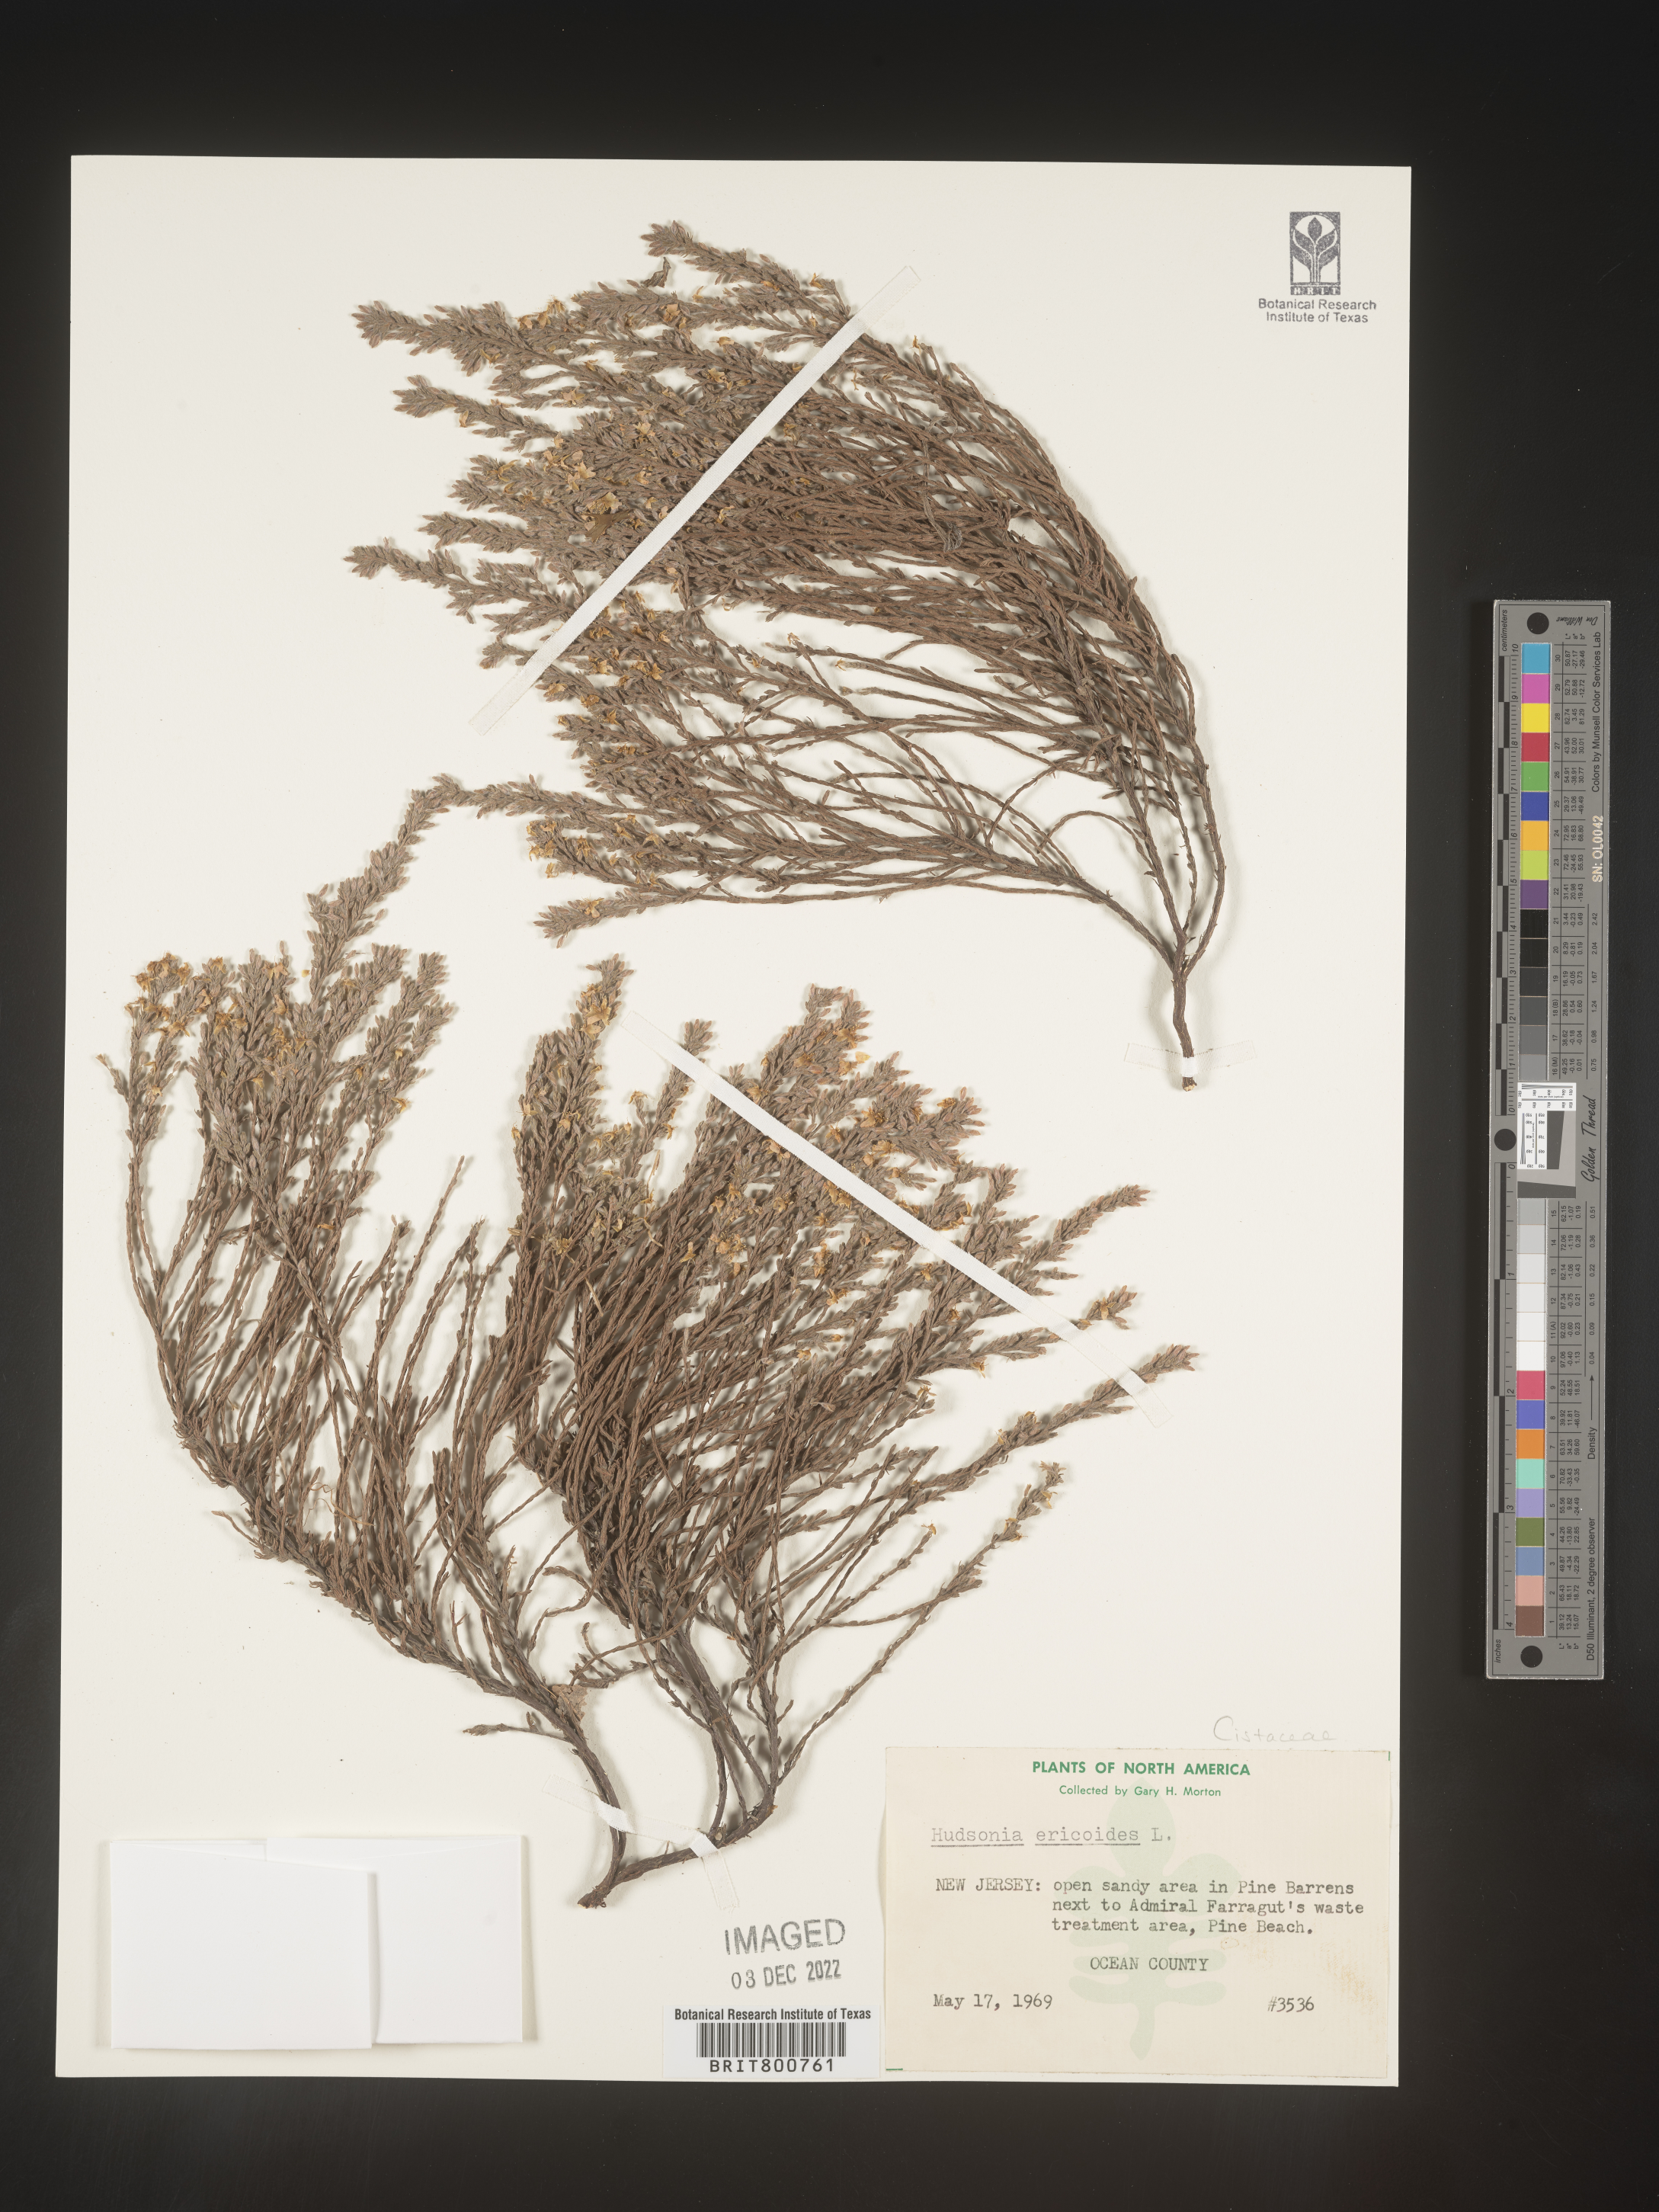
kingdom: Plantae
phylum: Tracheophyta
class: Magnoliopsida
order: Malvales
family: Cistaceae
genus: Hudsonia
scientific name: Hudsonia ericoides
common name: Golden-heather
